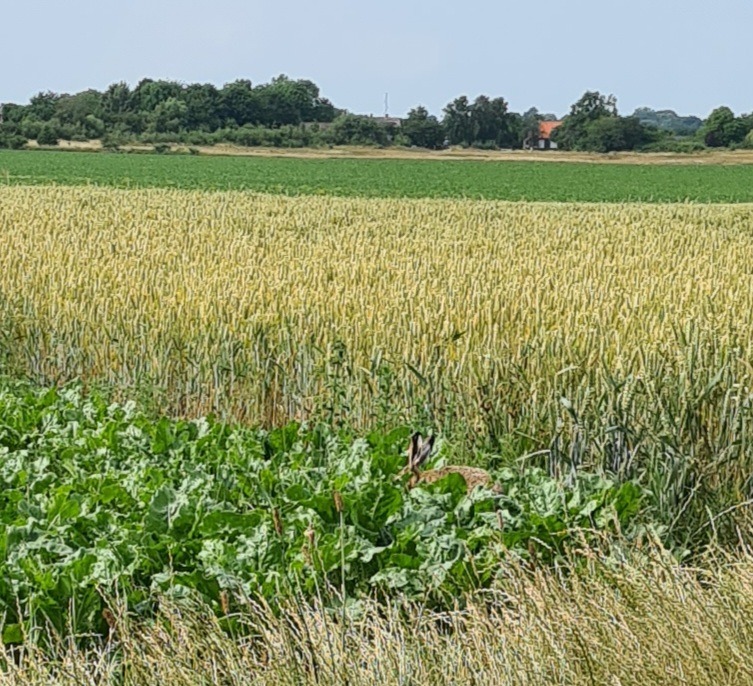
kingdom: Animalia
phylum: Chordata
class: Mammalia
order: Lagomorpha
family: Leporidae
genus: Lepus
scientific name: Lepus europaeus
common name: Hare
